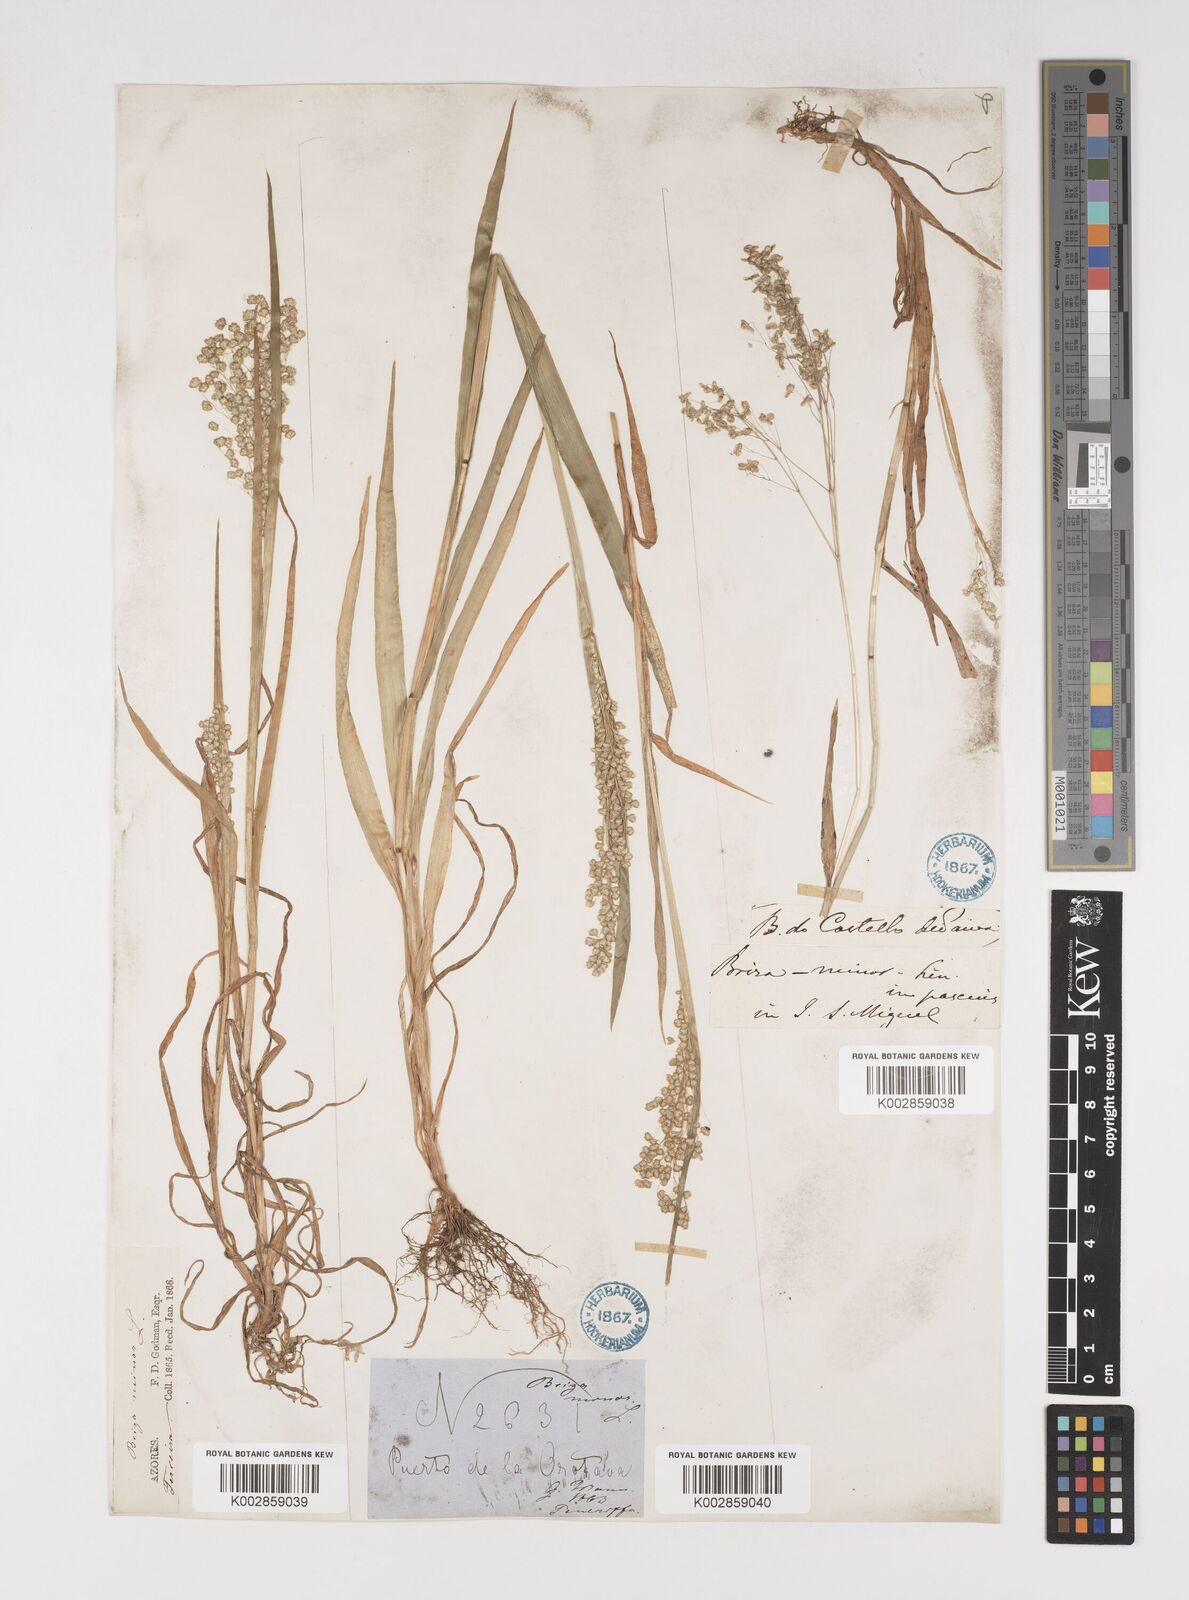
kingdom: Plantae
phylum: Tracheophyta
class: Liliopsida
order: Poales
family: Poaceae
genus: Briza
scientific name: Briza minor
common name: Lesser quaking-grass
